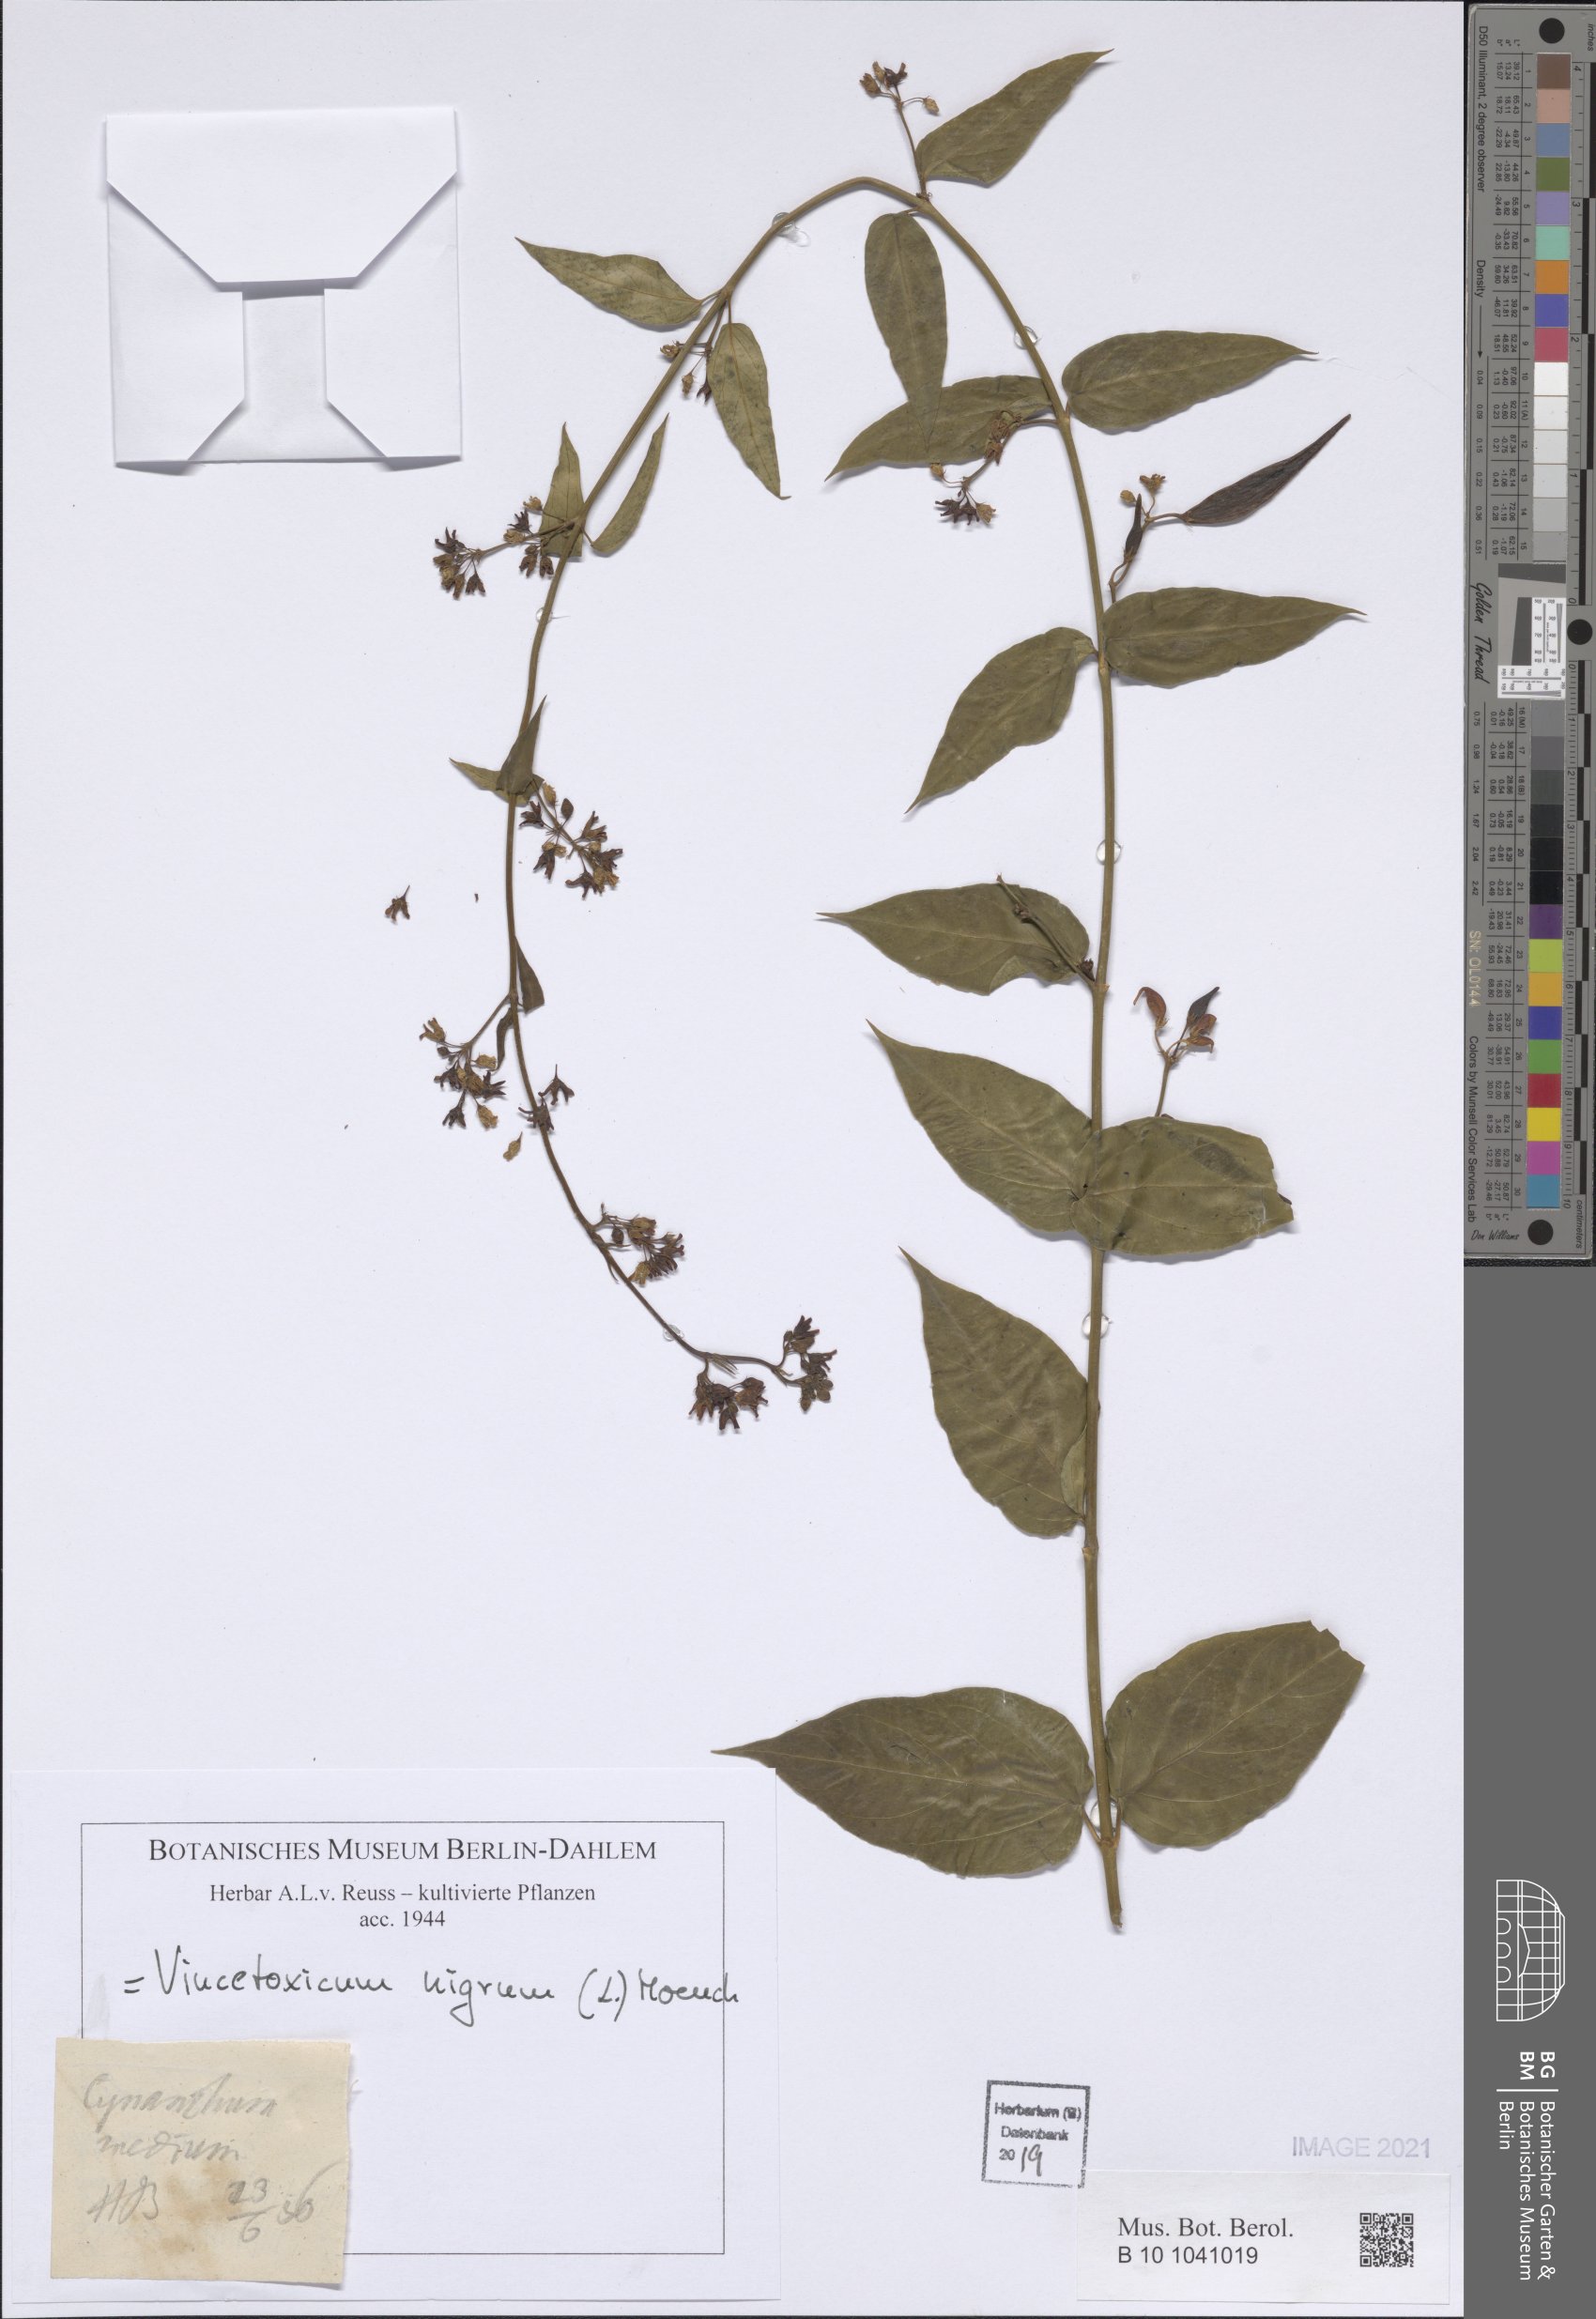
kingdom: Plantae
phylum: Tracheophyta
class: Magnoliopsida
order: Gentianales
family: Apocynaceae
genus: Vincetoxicum
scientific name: Vincetoxicum nigrum
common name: Black swallow-wort
